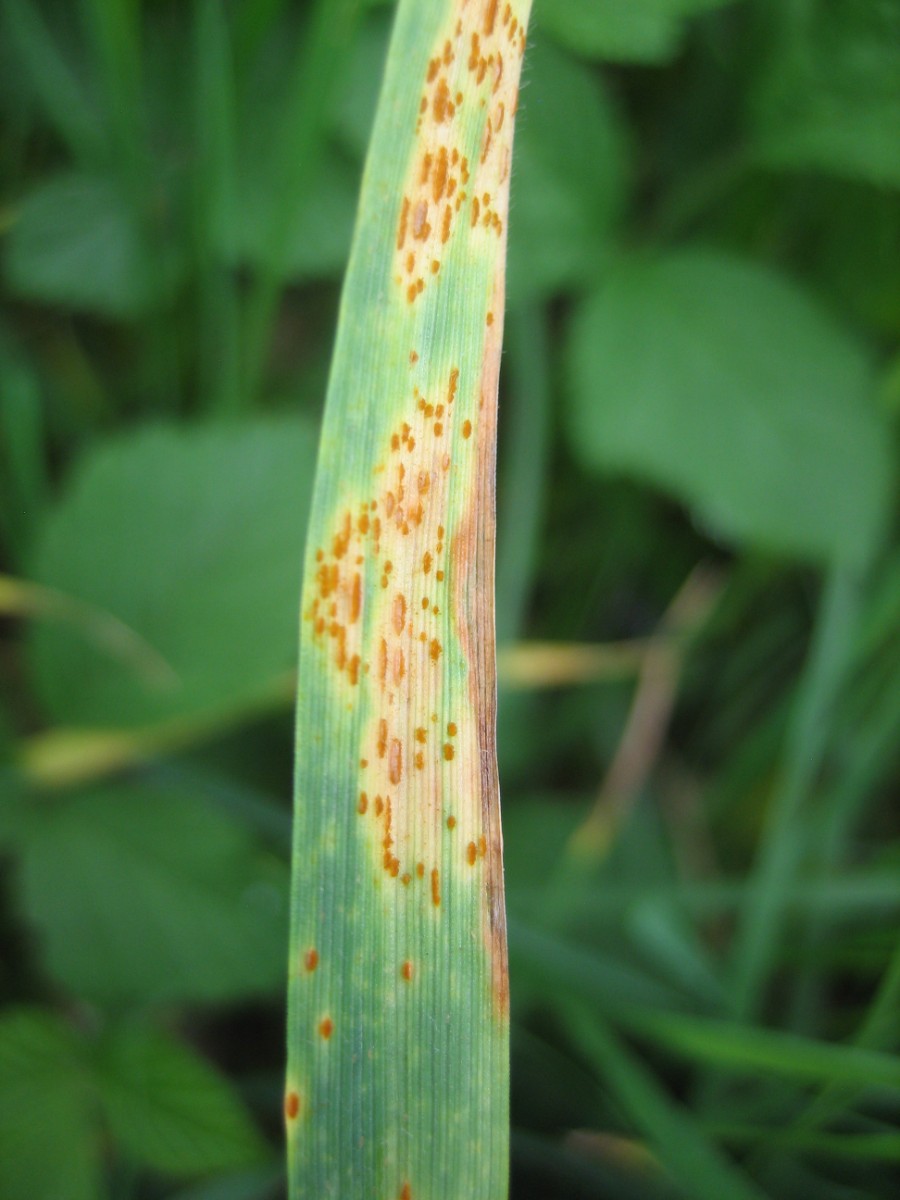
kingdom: Fungi
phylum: Basidiomycota
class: Pucciniomycetes
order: Pucciniales
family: Pucciniaceae
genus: Puccinia
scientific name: Puccinia
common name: tvecellerust
